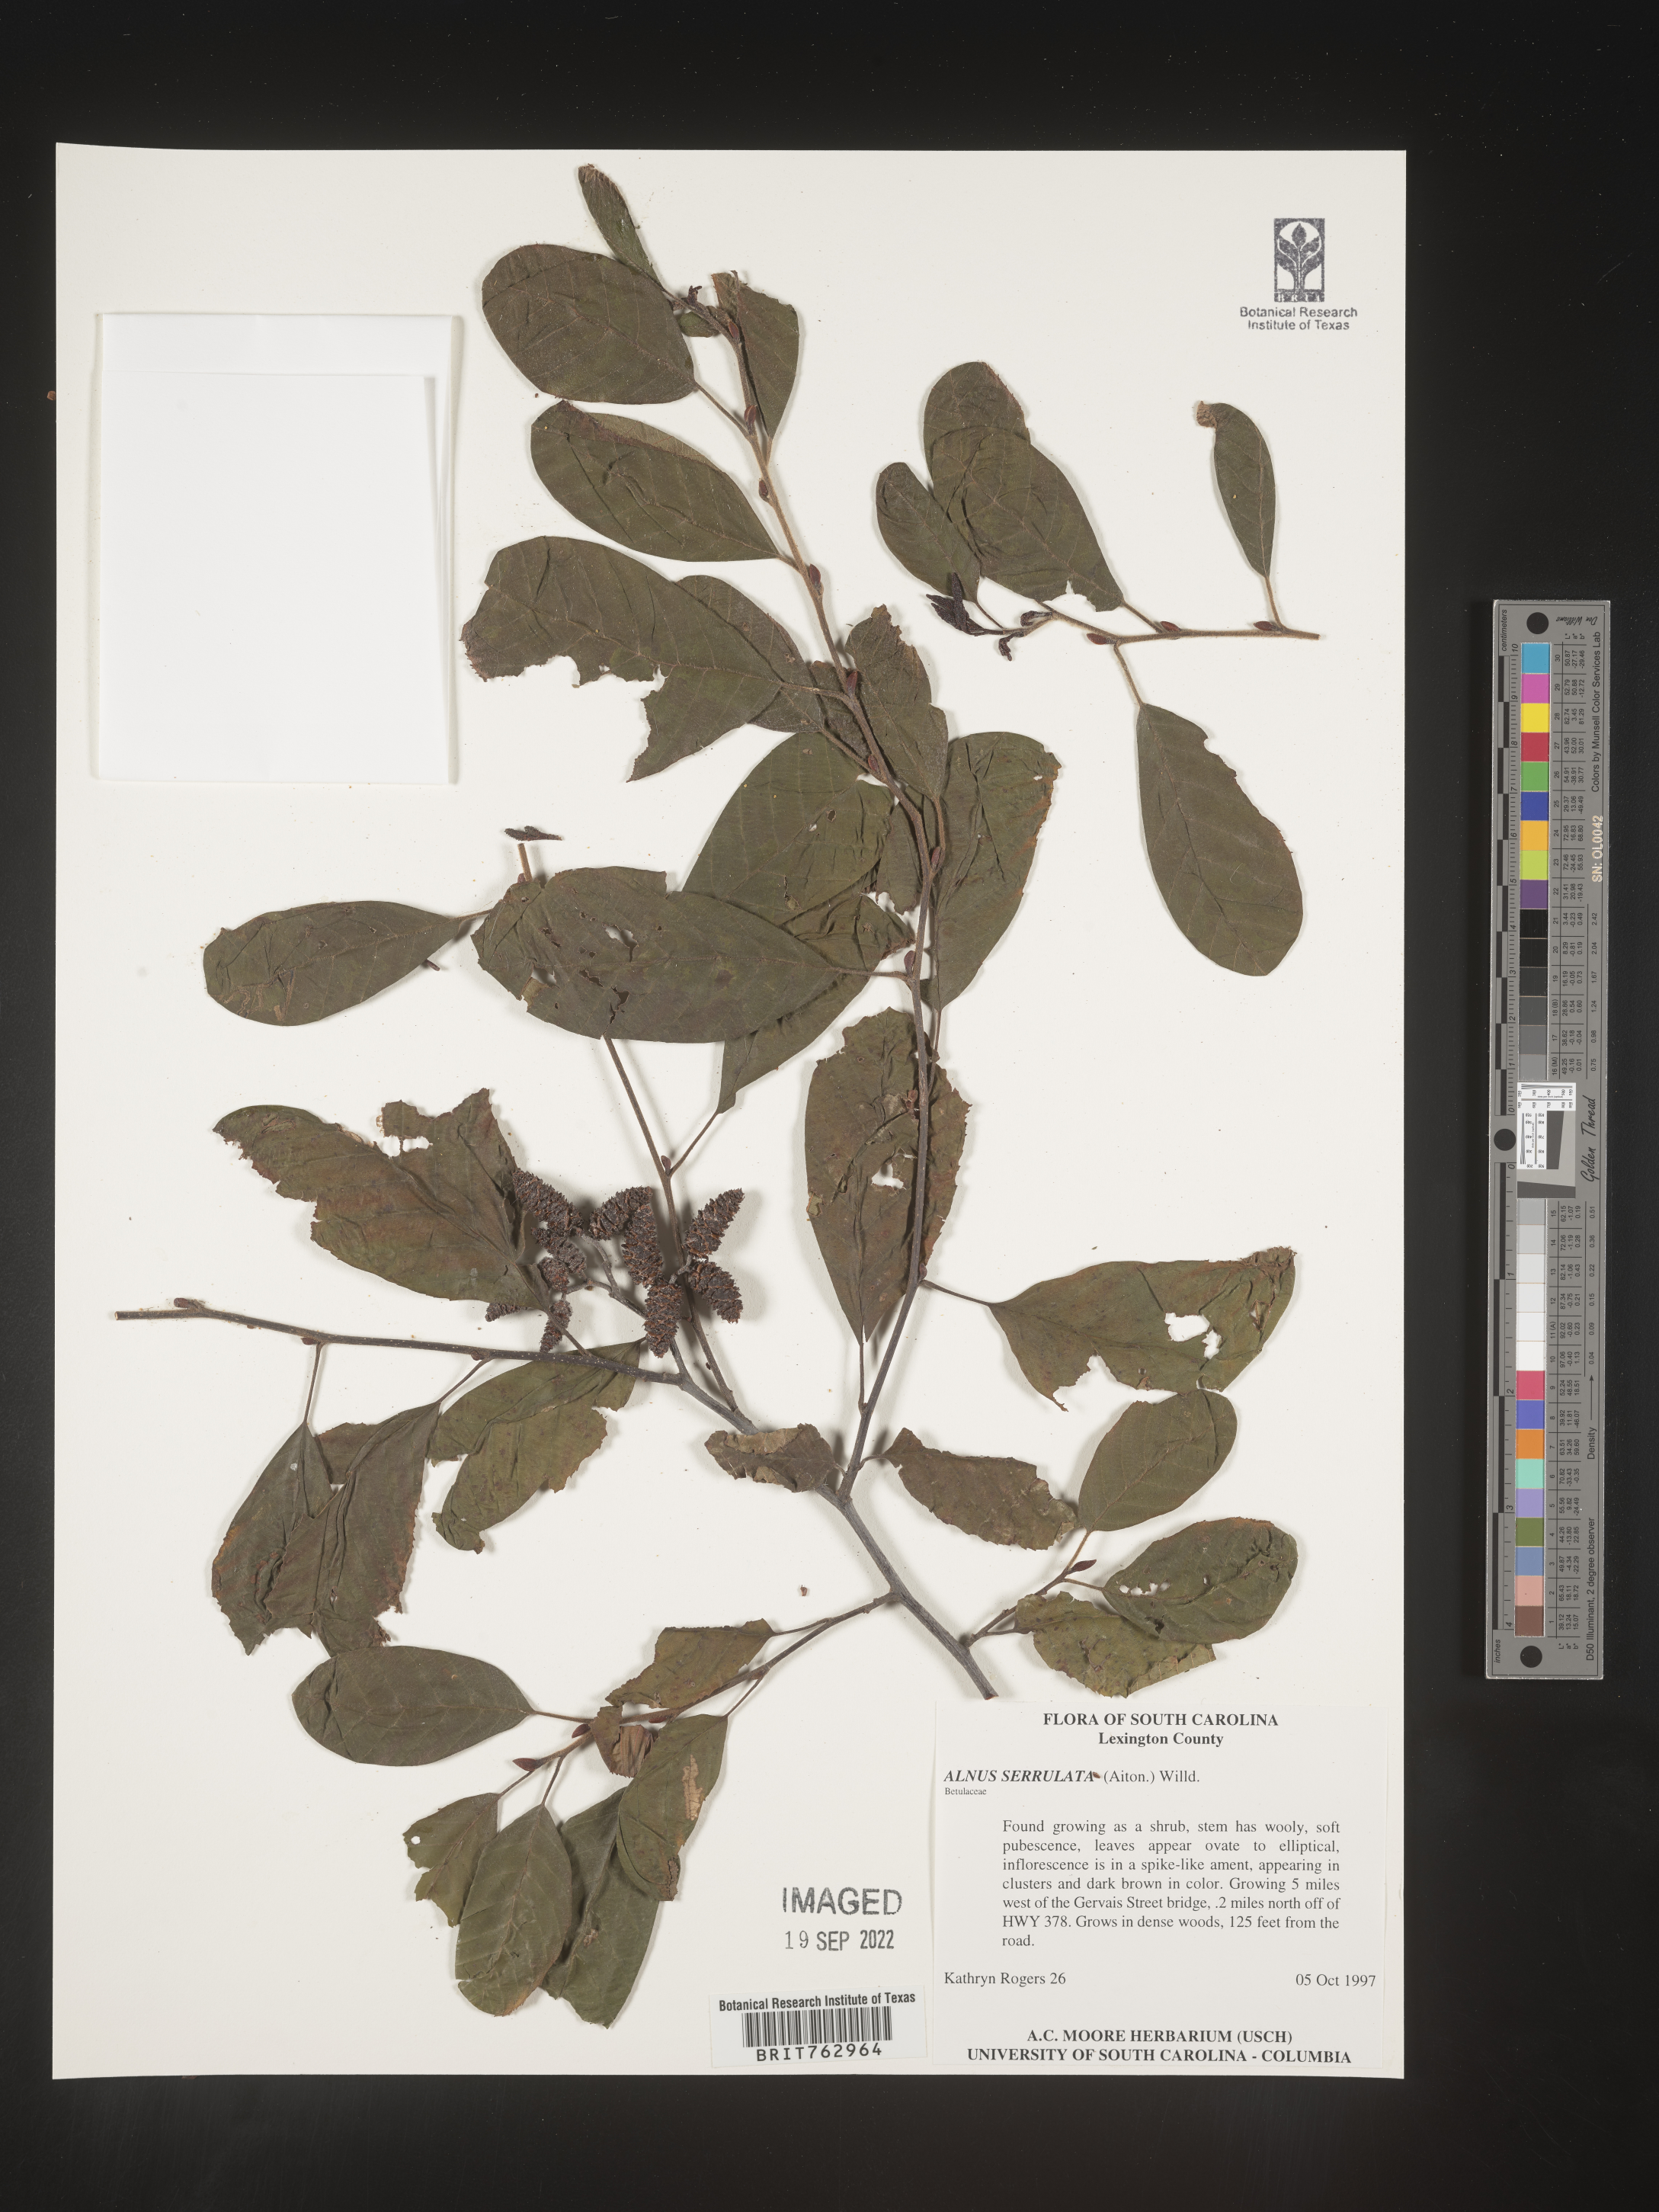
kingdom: Plantae
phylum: Tracheophyta
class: Magnoliopsida
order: Fagales
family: Betulaceae
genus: Alnus
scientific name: Alnus serrulata
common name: Hazel alder
